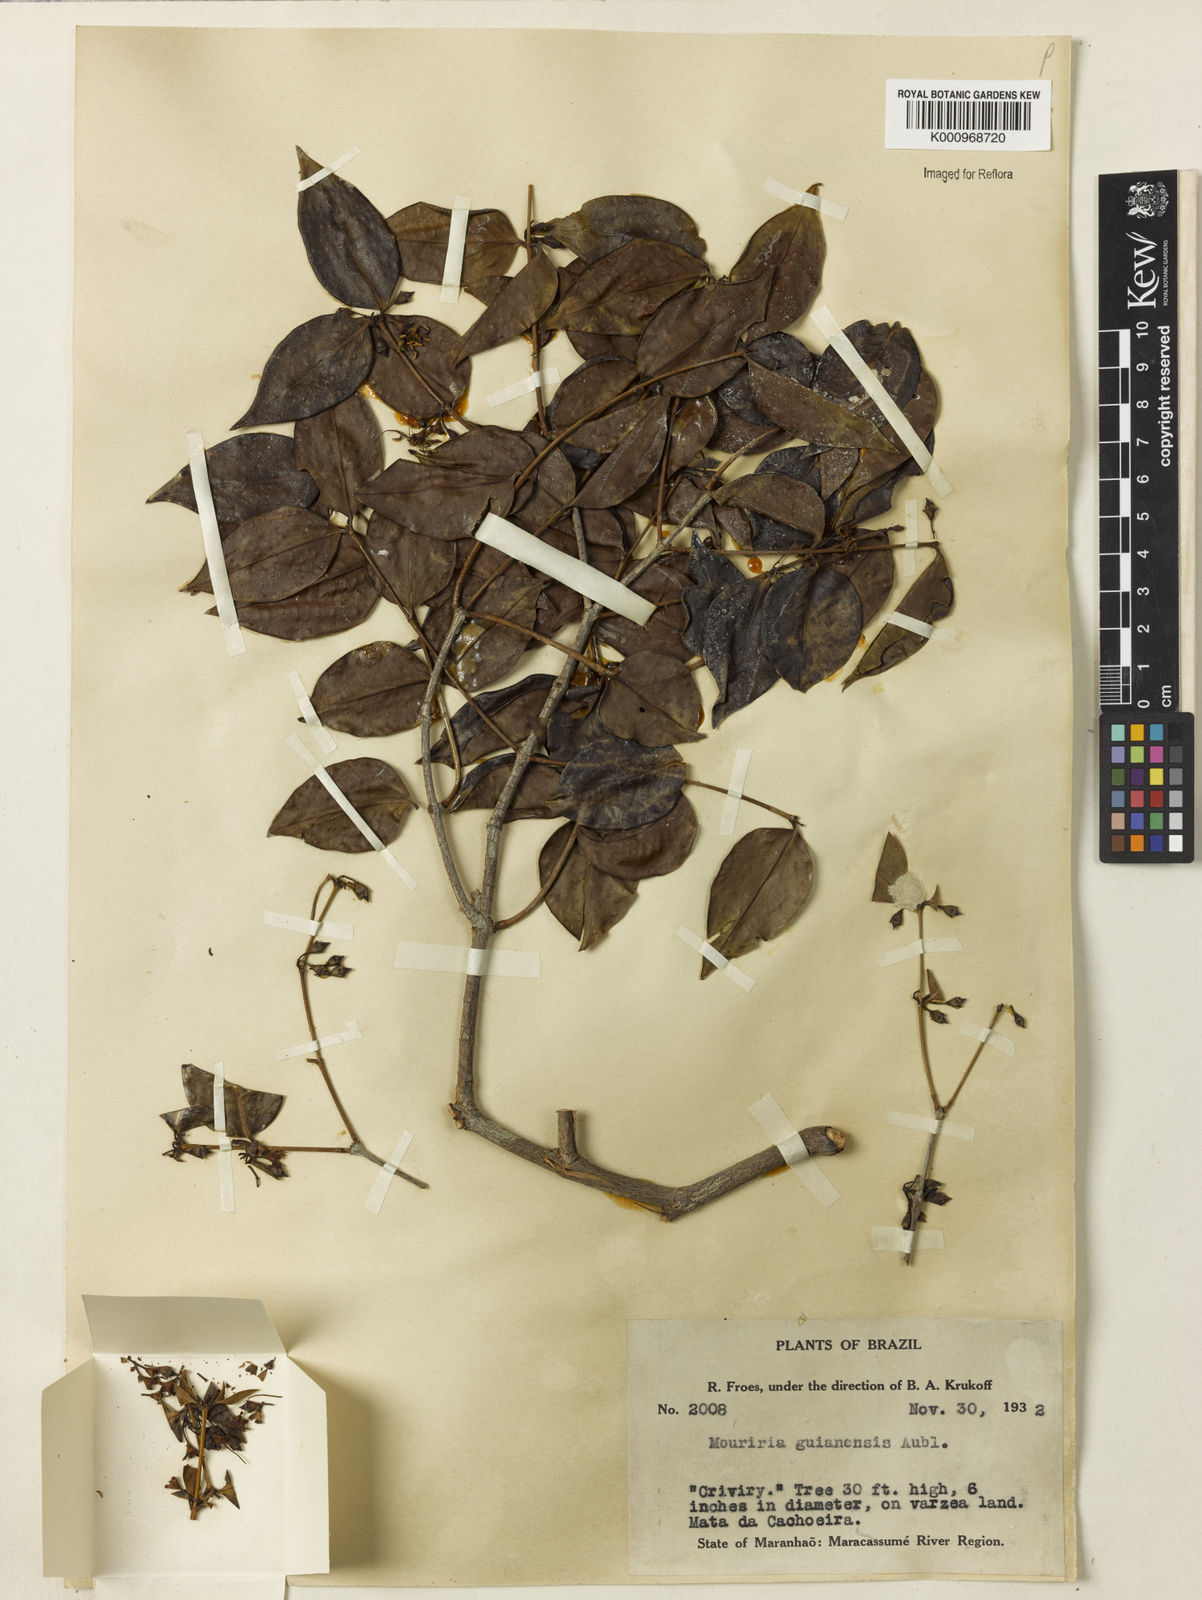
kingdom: Plantae
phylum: Tracheophyta
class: Magnoliopsida
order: Myrtales
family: Melastomataceae
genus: Mouriri
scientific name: Mouriri guianensis
